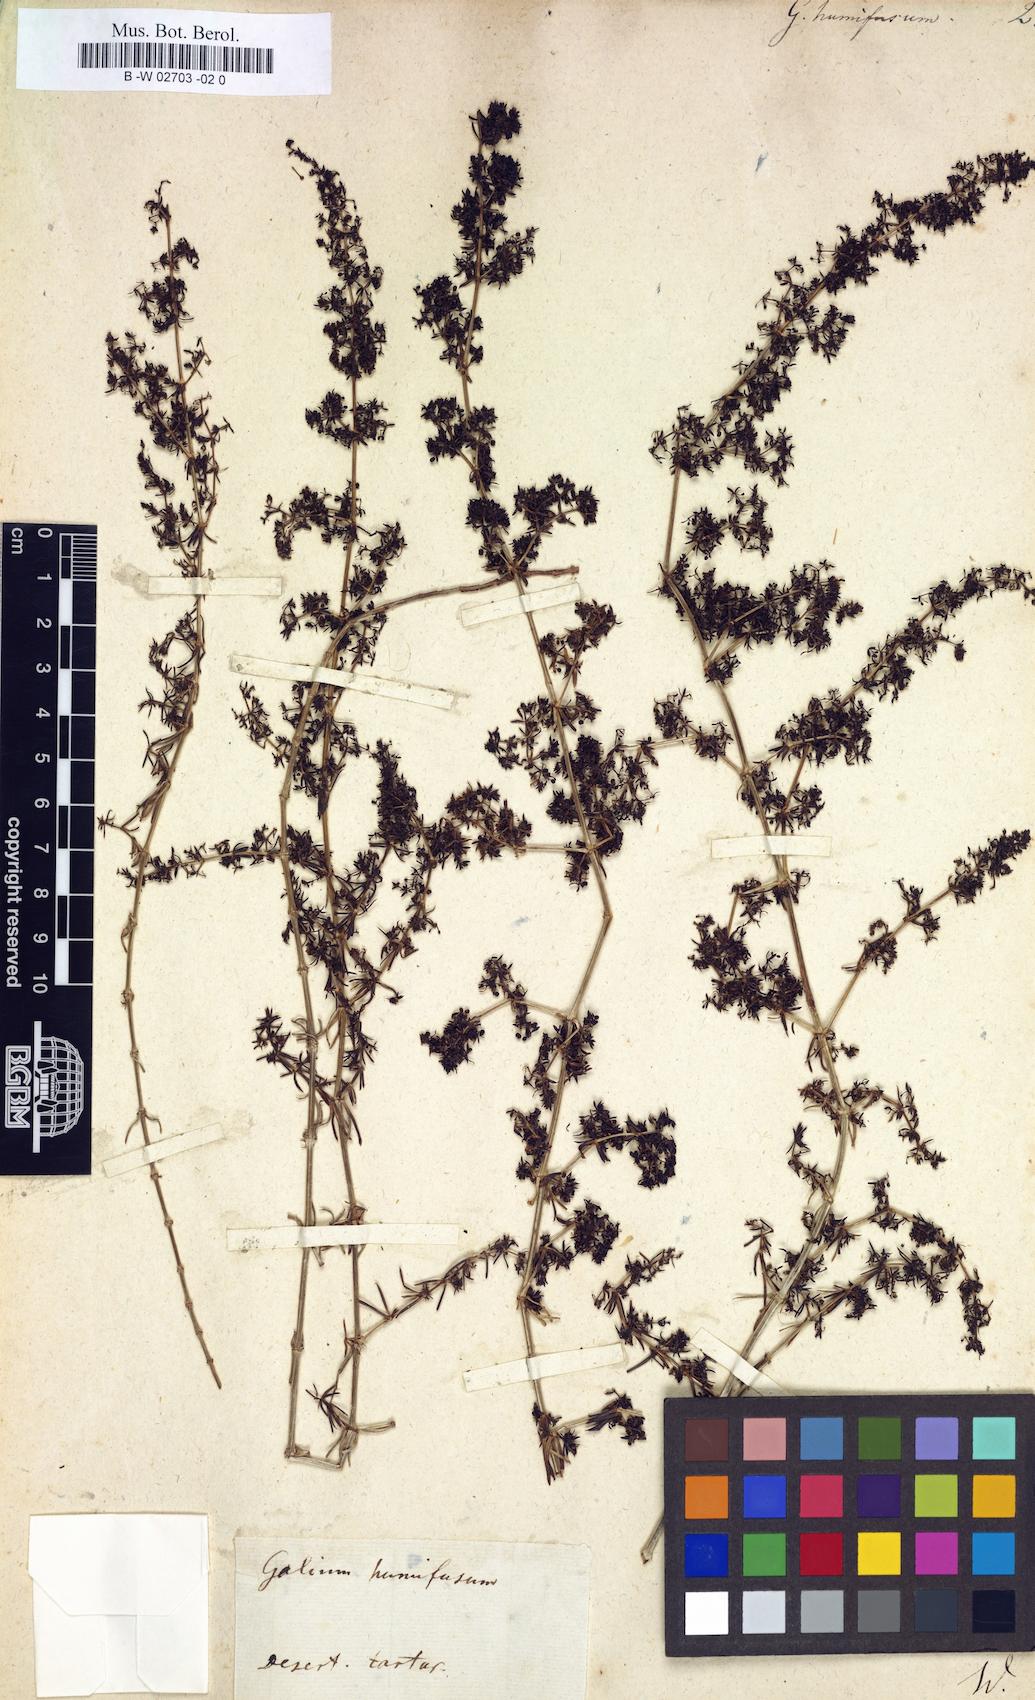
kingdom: Plantae
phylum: Tracheophyta
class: Magnoliopsida
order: Gentianales
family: Rubiaceae
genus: Galium
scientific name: Galium humifusum
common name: Spreading bedstraw
